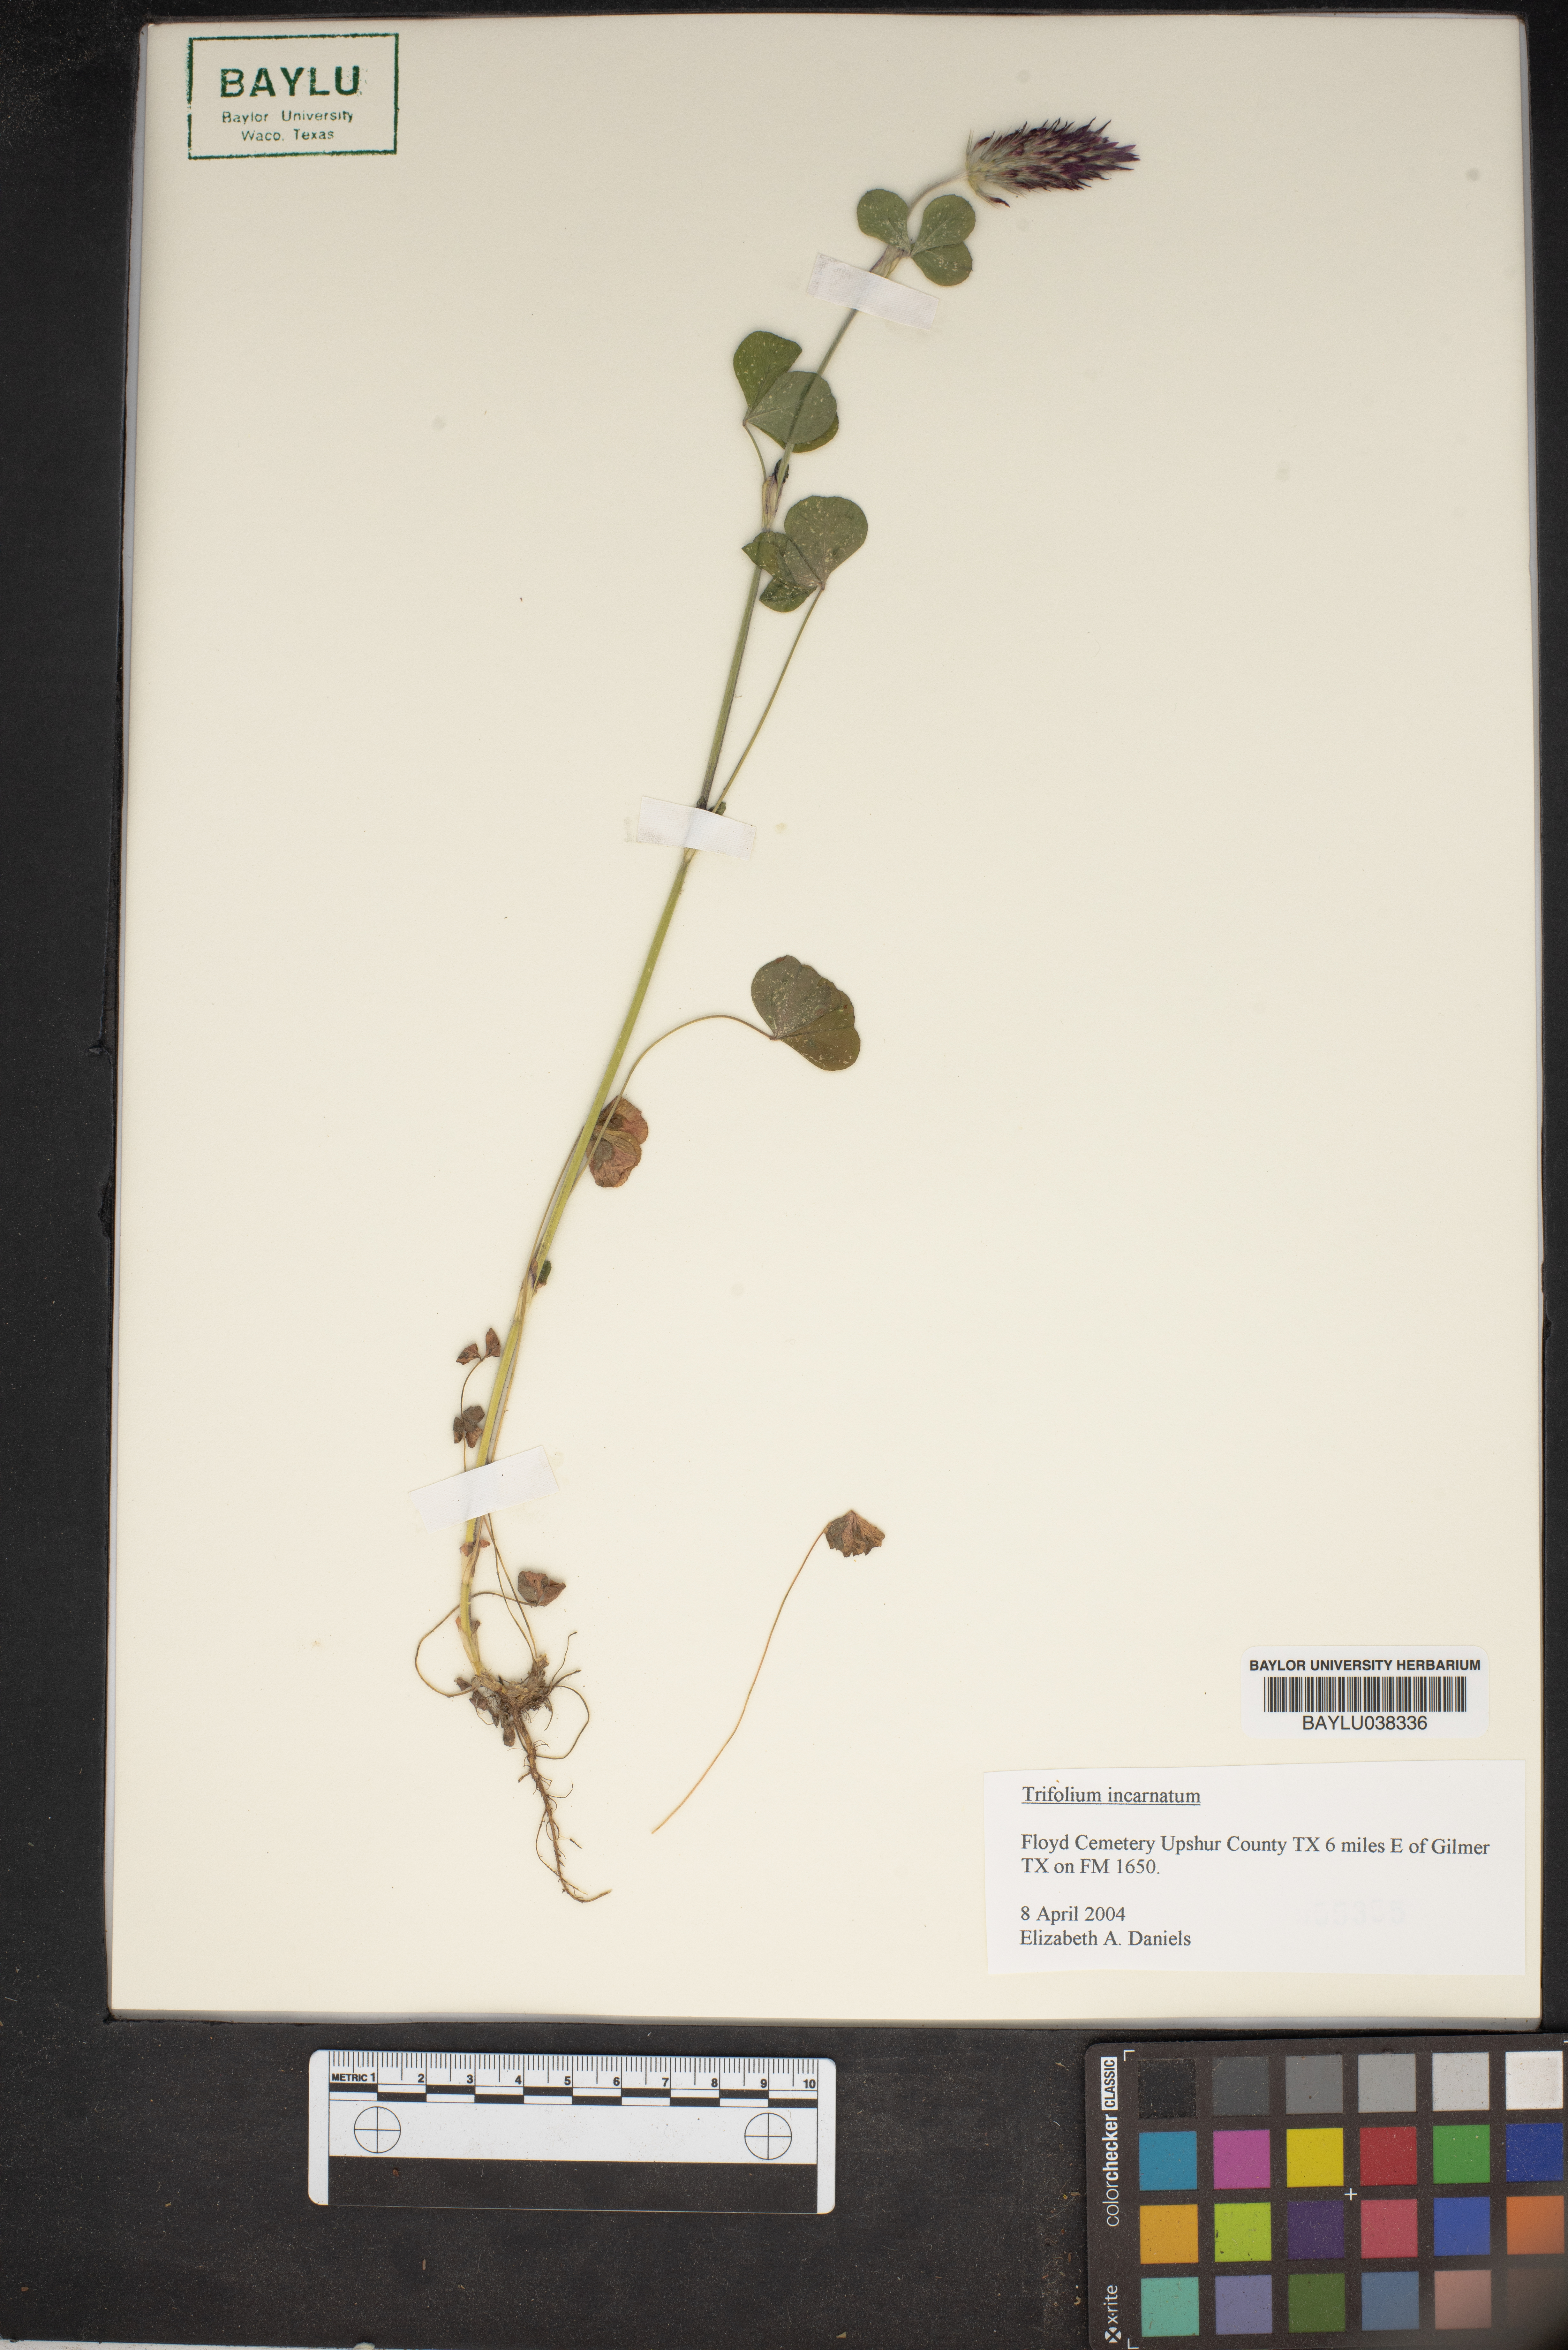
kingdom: Plantae
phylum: Tracheophyta
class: Magnoliopsida
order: Fabales
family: Fabaceae
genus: Trifolium
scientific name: Trifolium incarnatum
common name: Crimson clover
